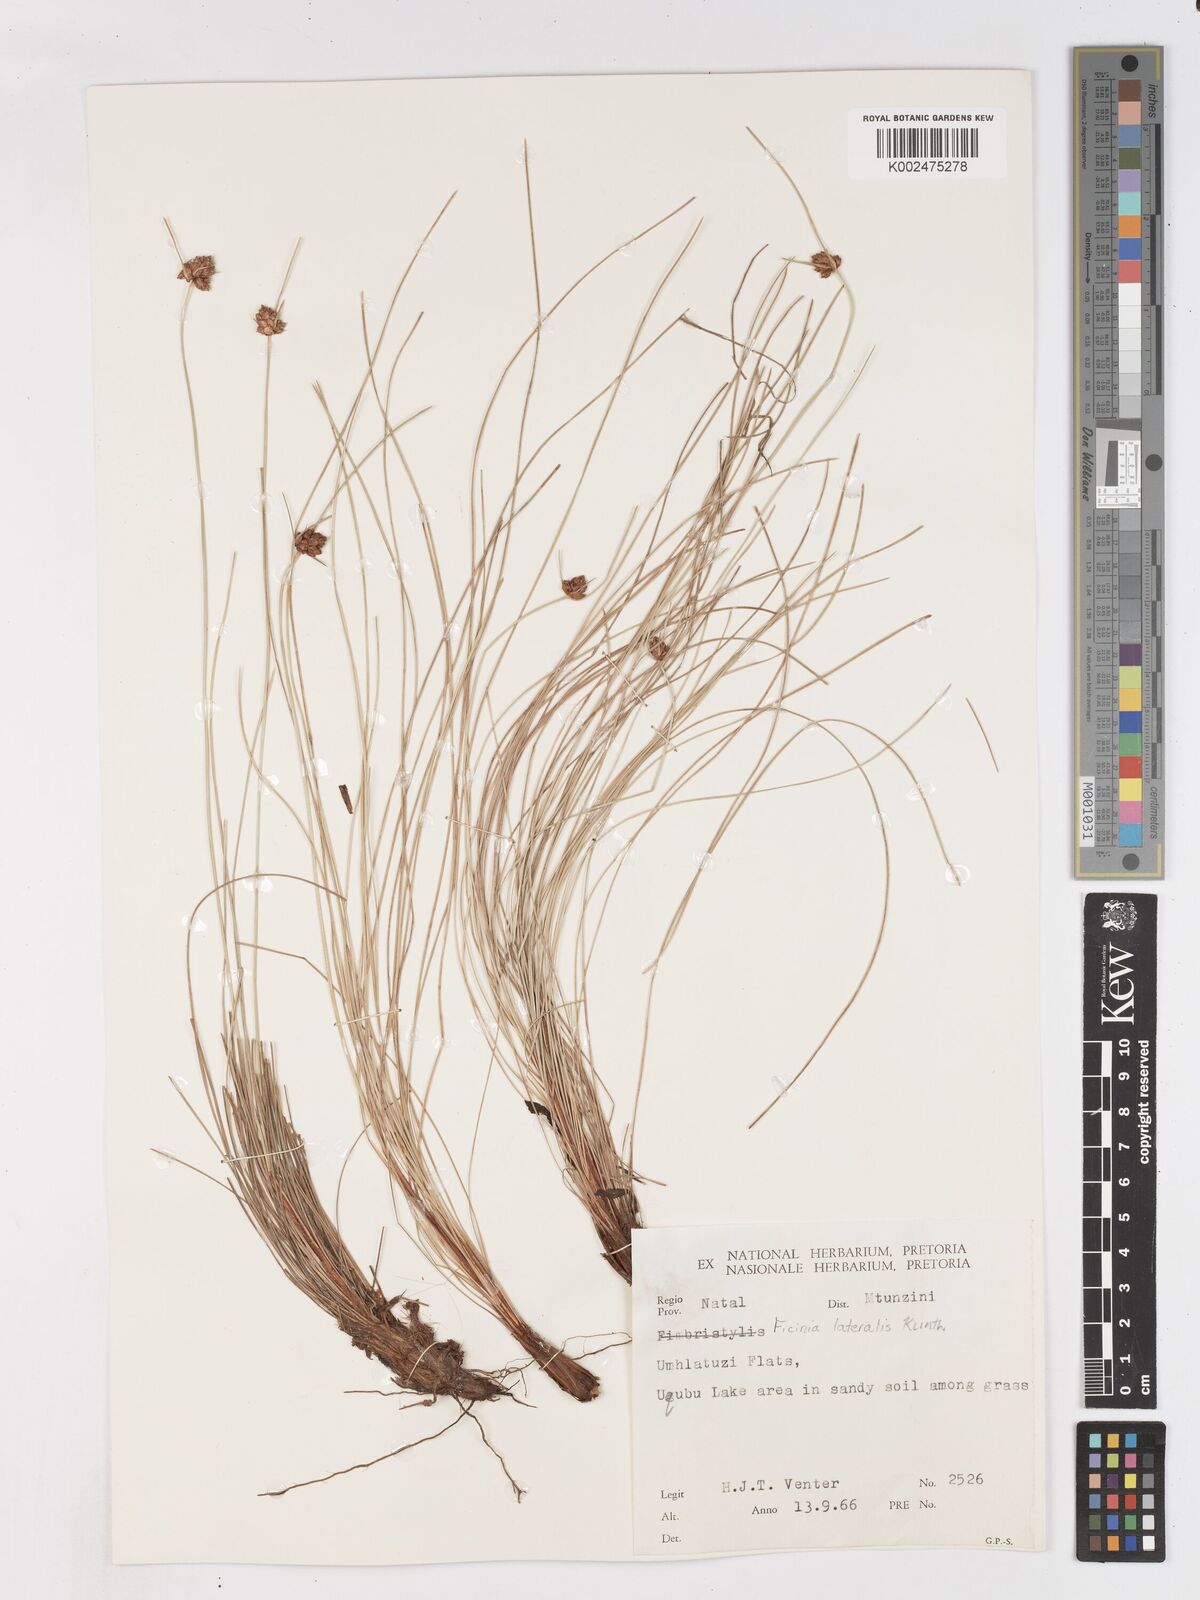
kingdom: Plantae
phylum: Tracheophyta
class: Liliopsida
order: Poales
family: Cyperaceae
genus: Ficinia
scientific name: Ficinia laciniata
